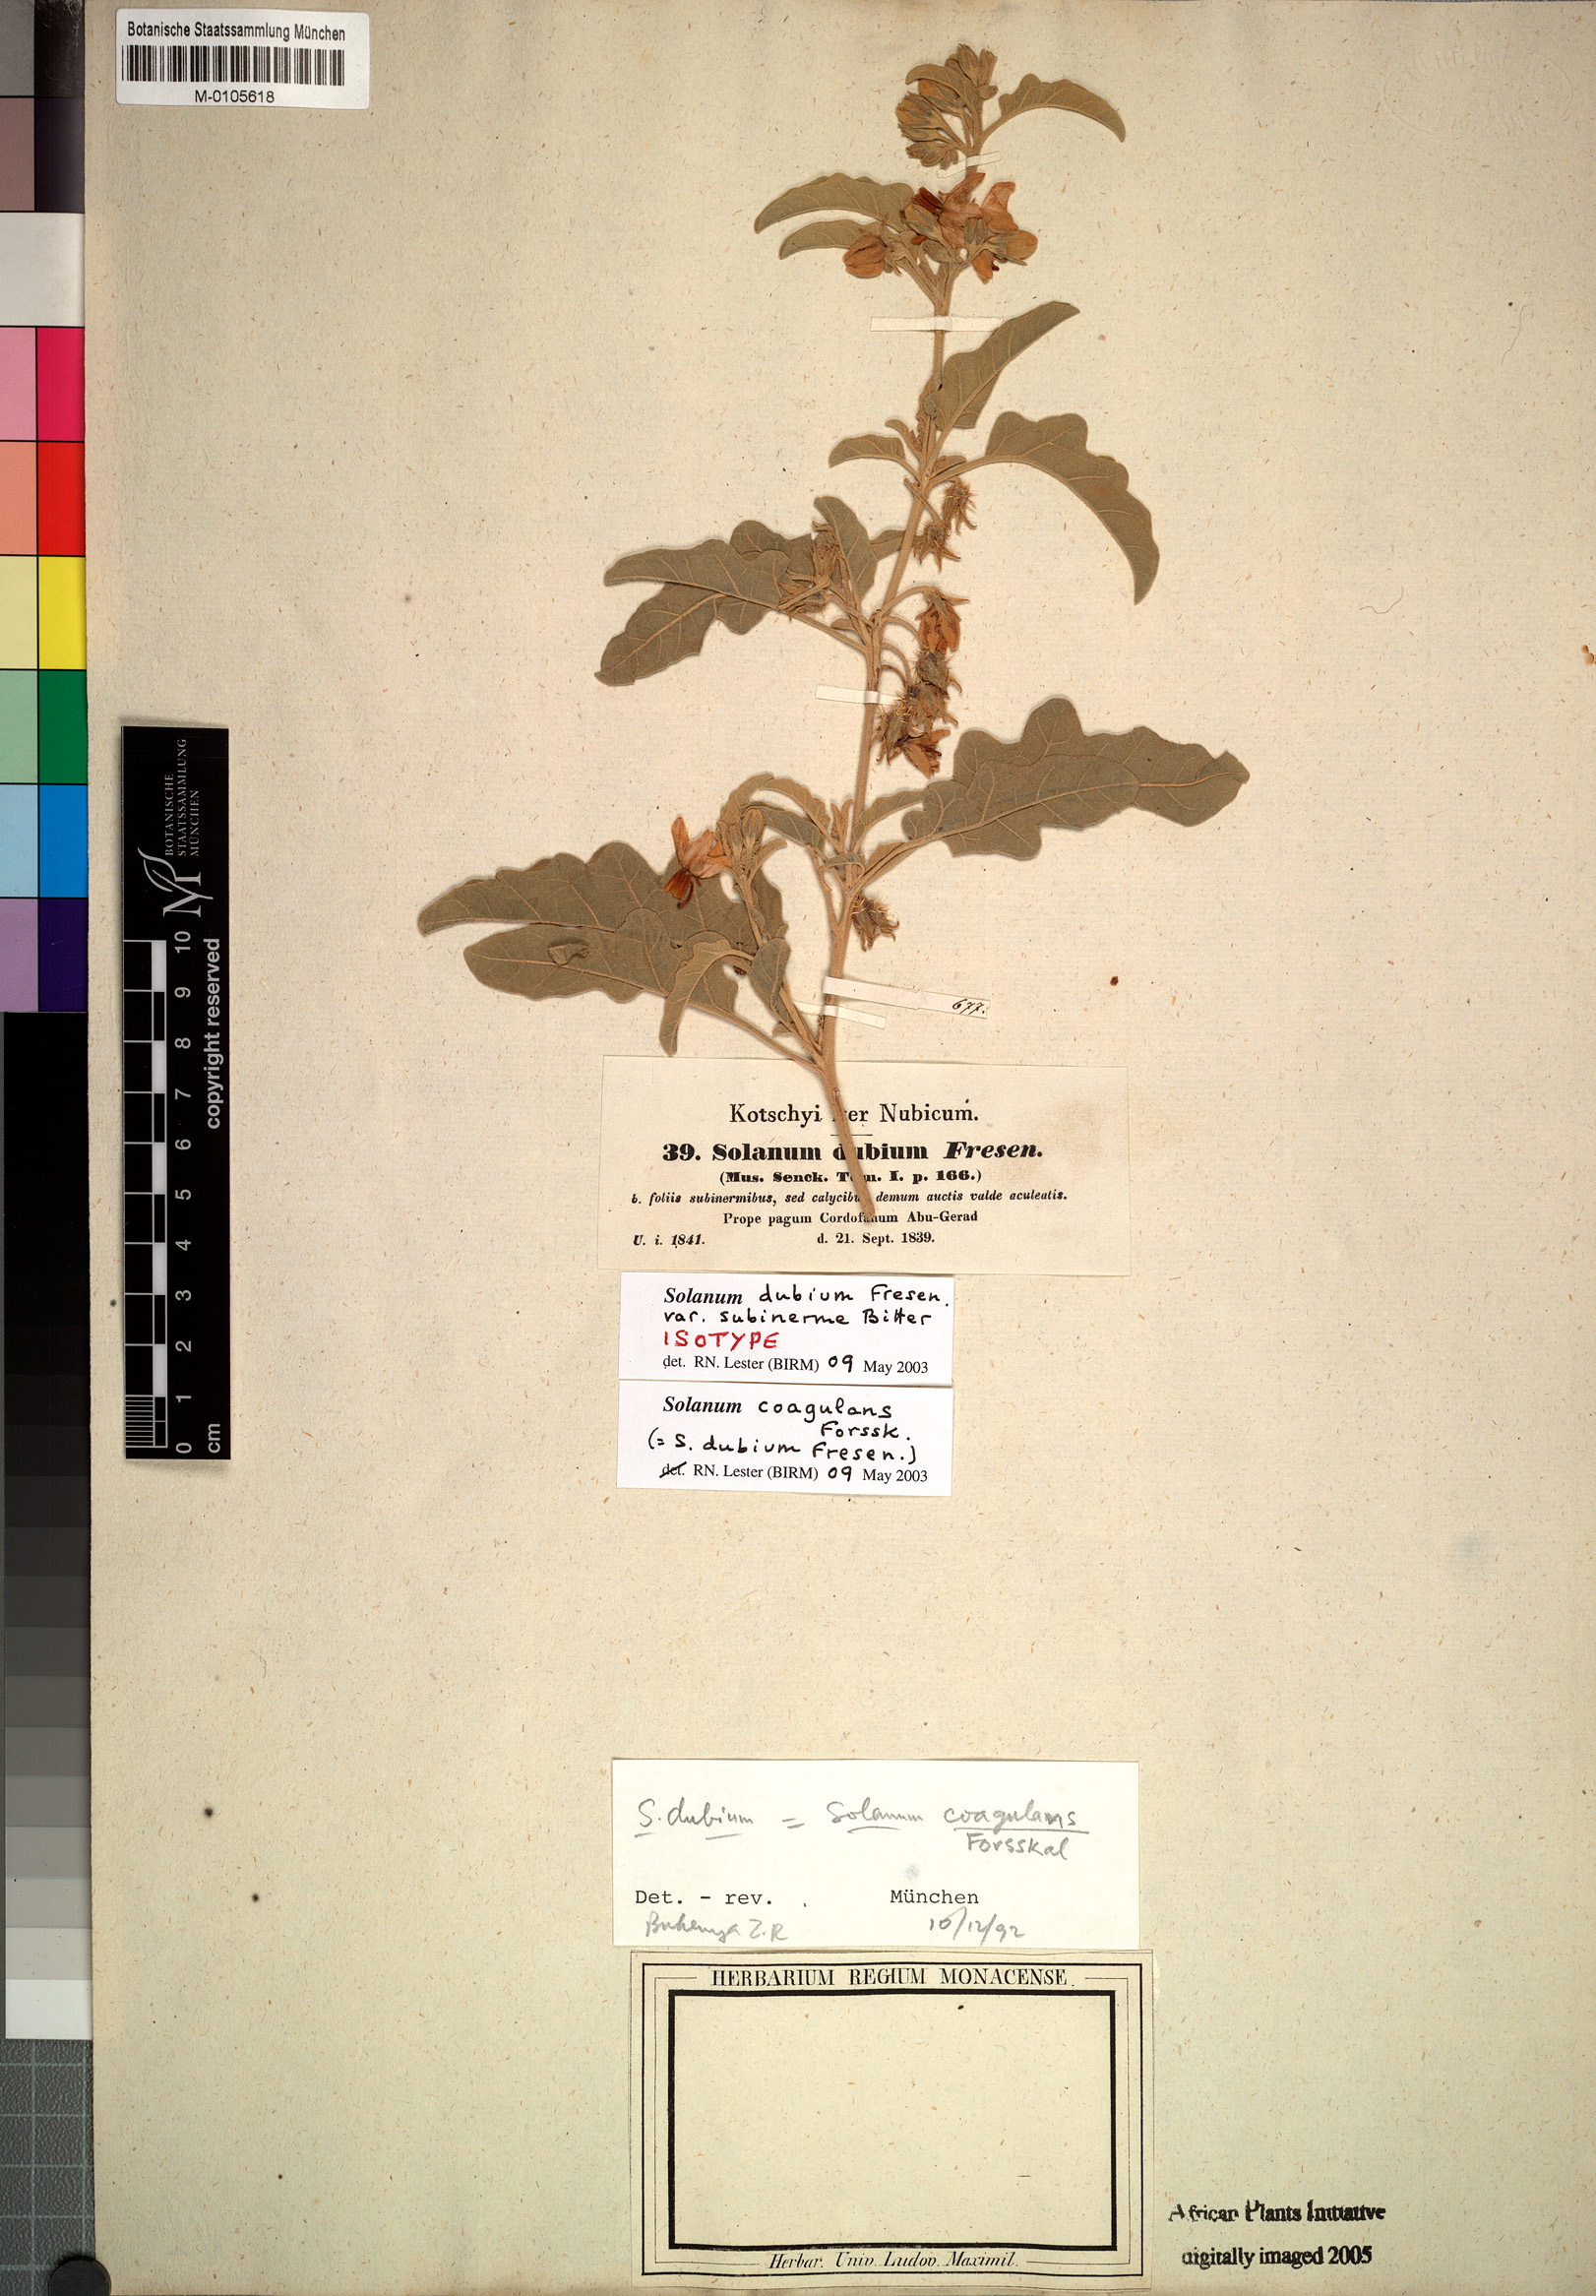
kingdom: Plantae
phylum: Tracheophyta
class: Magnoliopsida
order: Solanales
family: Solanaceae
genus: Solanum
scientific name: Solanum coagulans
